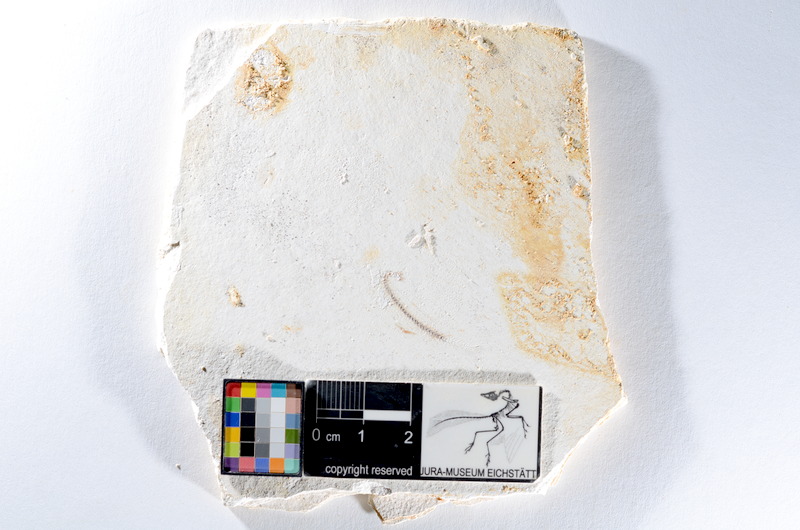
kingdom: Animalia
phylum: Chordata
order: Salmoniformes
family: Orthogonikleithridae
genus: Orthogonikleithrus
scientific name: Orthogonikleithrus hoelli
